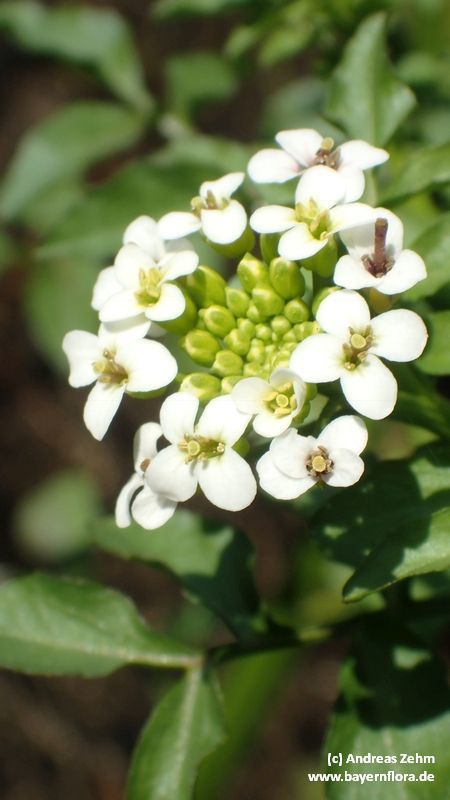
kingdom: Plantae
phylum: Tracheophyta
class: Magnoliopsida
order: Brassicales
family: Brassicaceae
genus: Nasturtium
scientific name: Nasturtium officinale
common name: Watercress
